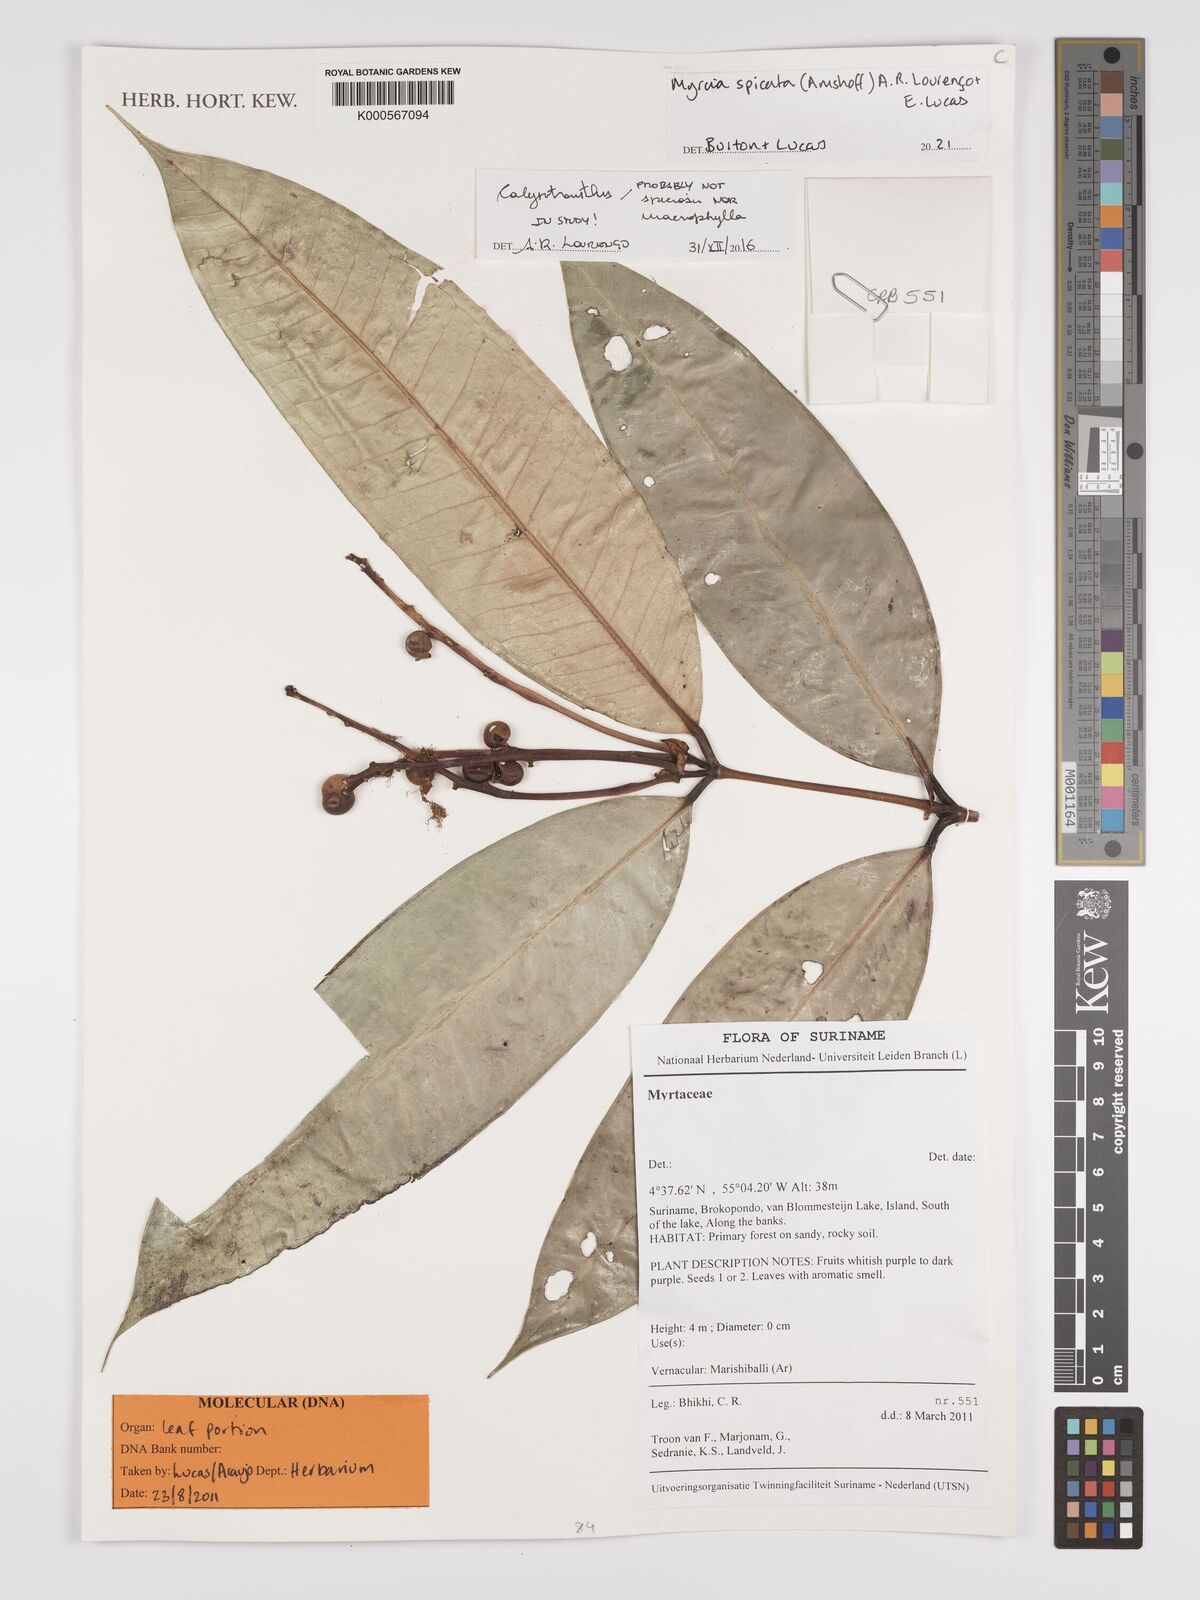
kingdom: Plantae
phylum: Tracheophyta
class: Magnoliopsida
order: Myrtales
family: Myrtaceae
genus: Myrcia
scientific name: Myrcia spicata
